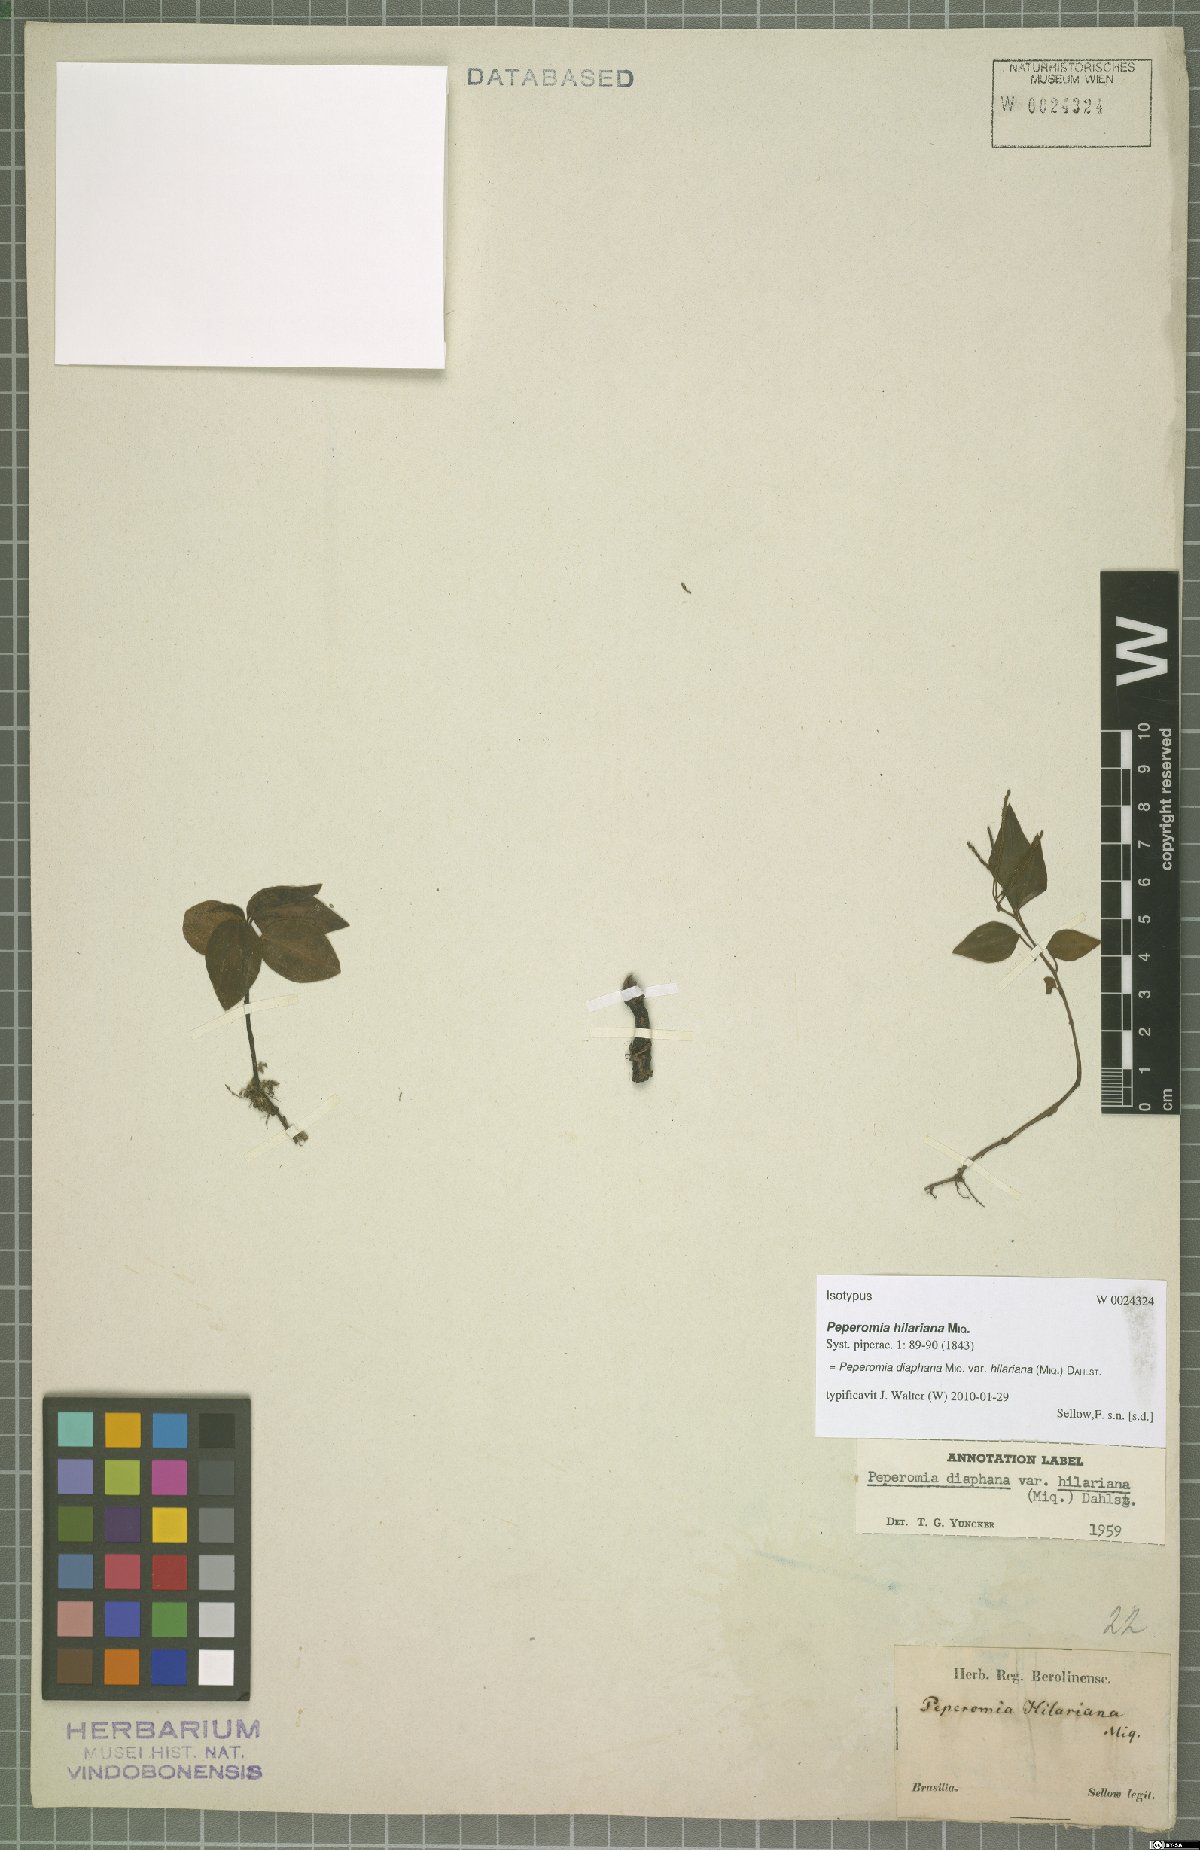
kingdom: Plantae
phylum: Tracheophyta
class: Magnoliopsida
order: Piperales
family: Piperaceae
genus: Peperomia
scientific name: Peperomia hilariana
